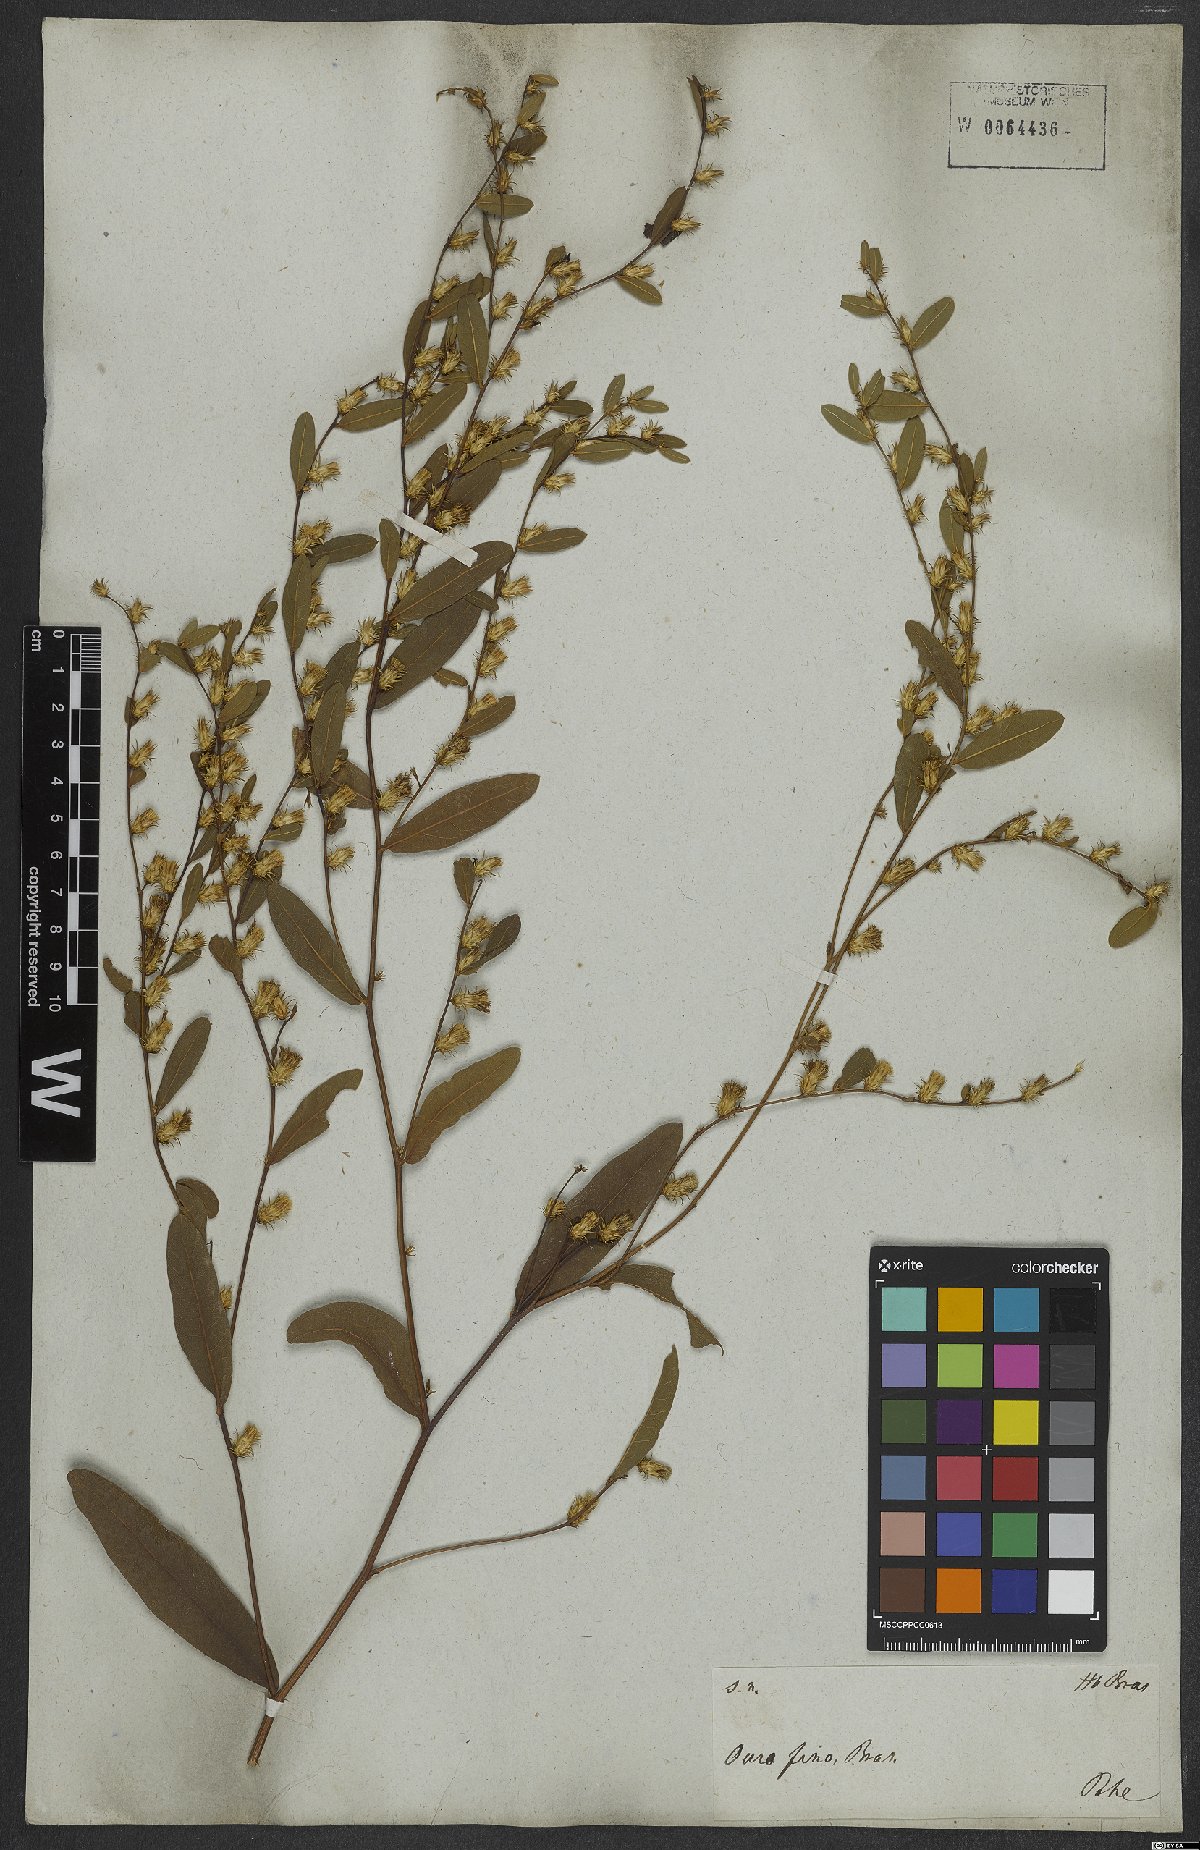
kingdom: Plantae
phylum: Tracheophyta
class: Magnoliopsida
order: Asterales
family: Asteraceae
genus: Lessingianthus
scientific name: Lessingianthus hoveaefolius
